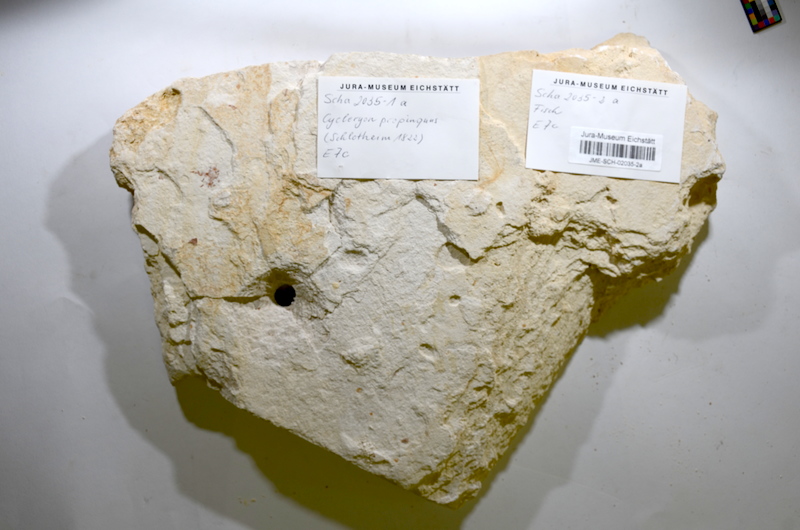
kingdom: Animalia
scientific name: Animalia
